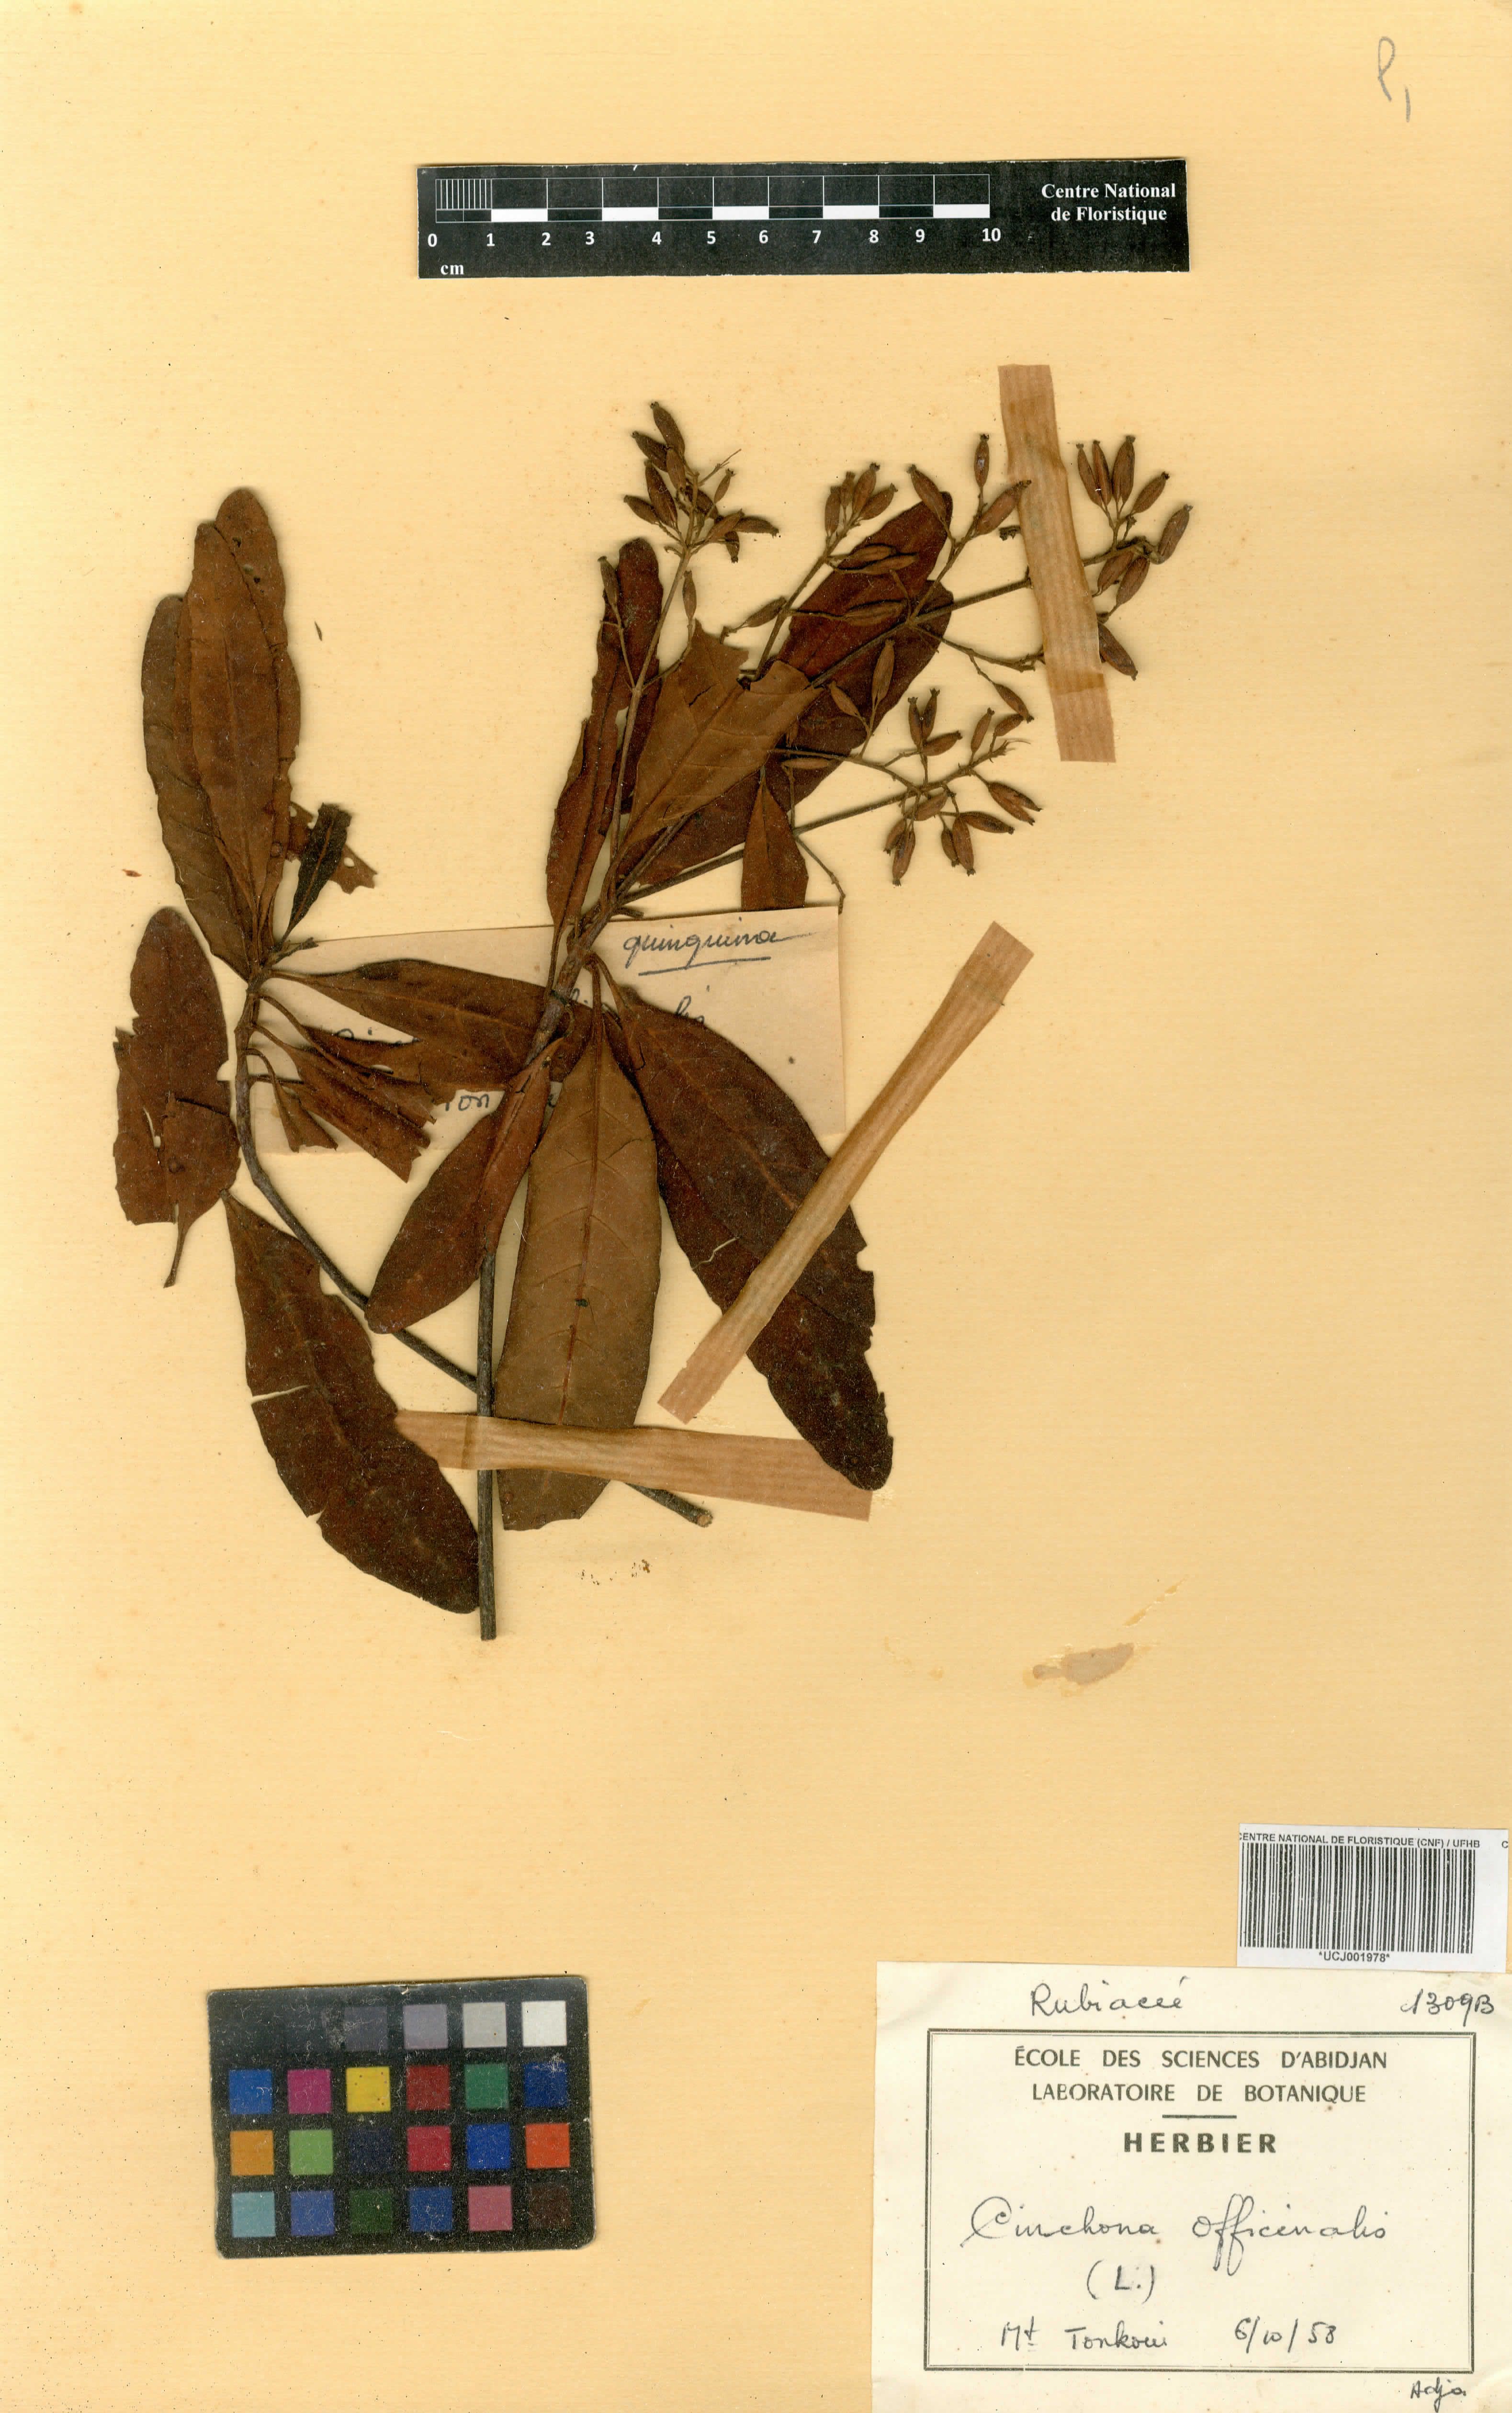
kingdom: Plantae
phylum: Tracheophyta
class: Magnoliopsida
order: Gentianales
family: Rubiaceae
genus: Cinchona
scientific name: Cinchona officinalis
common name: Lojabark
